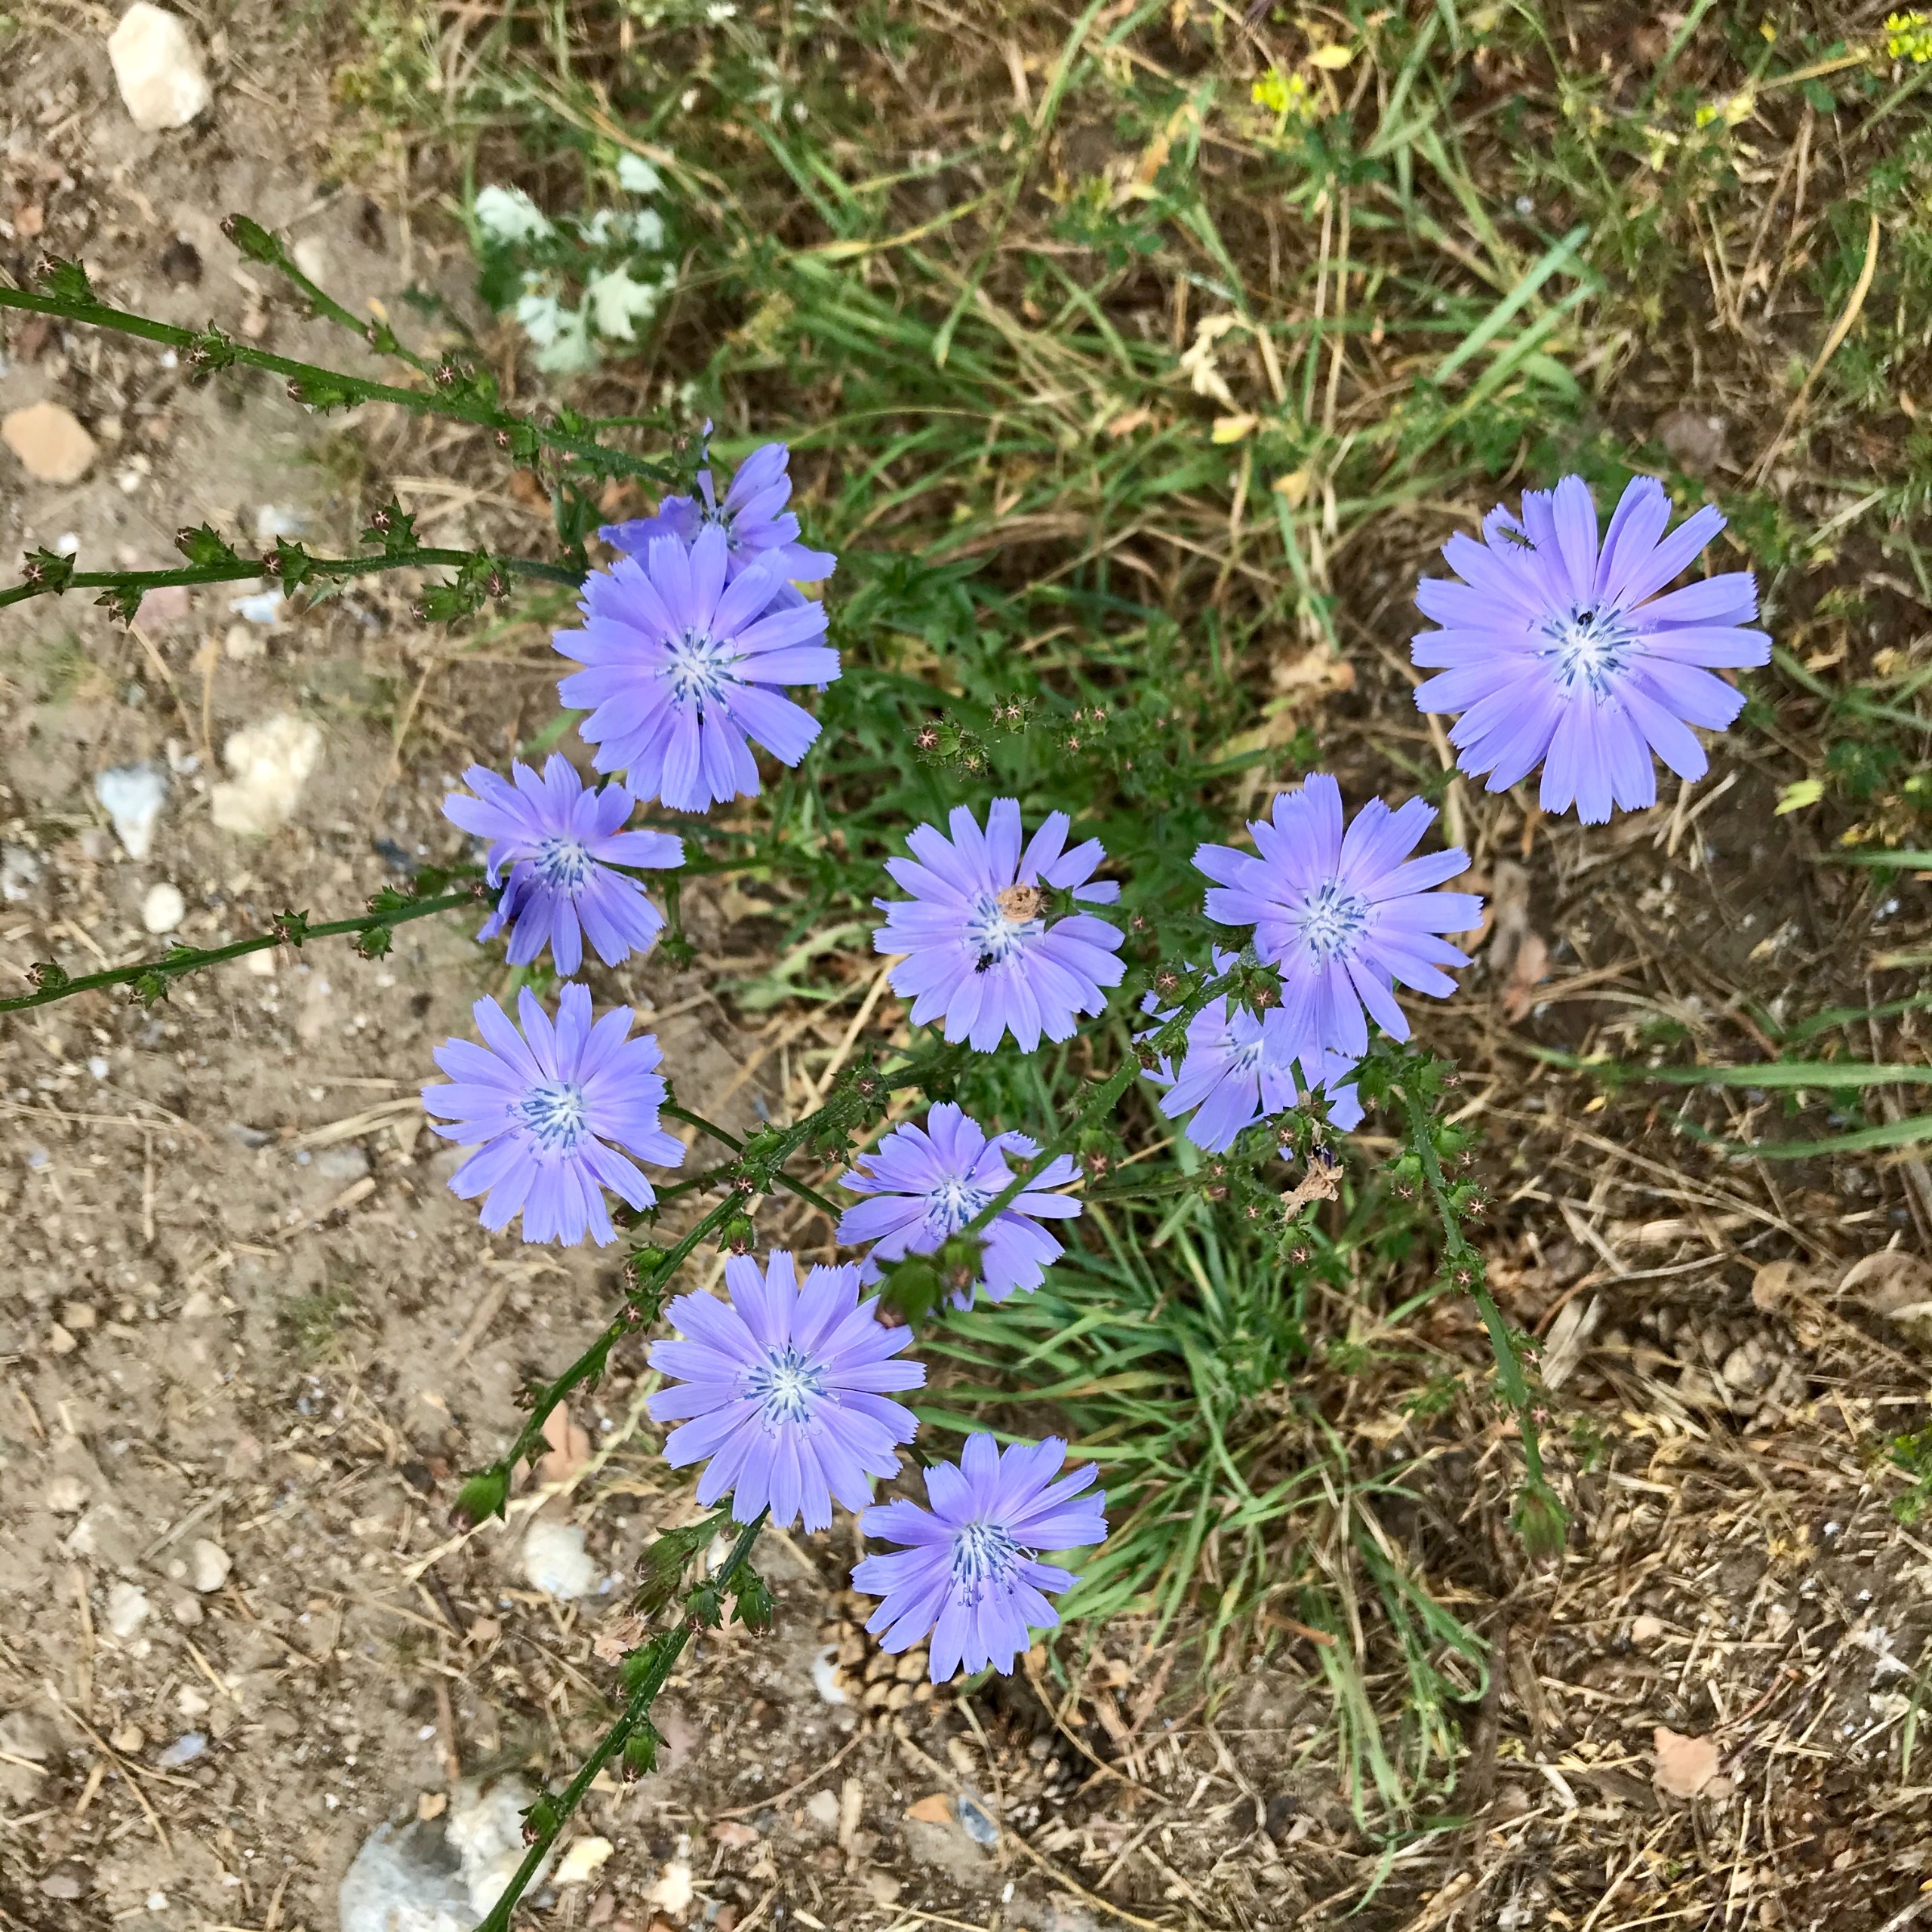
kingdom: Plantae
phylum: Tracheophyta
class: Magnoliopsida
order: Asterales
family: Asteraceae
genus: Cichorium
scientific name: Cichorium intybus
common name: Cikorie
